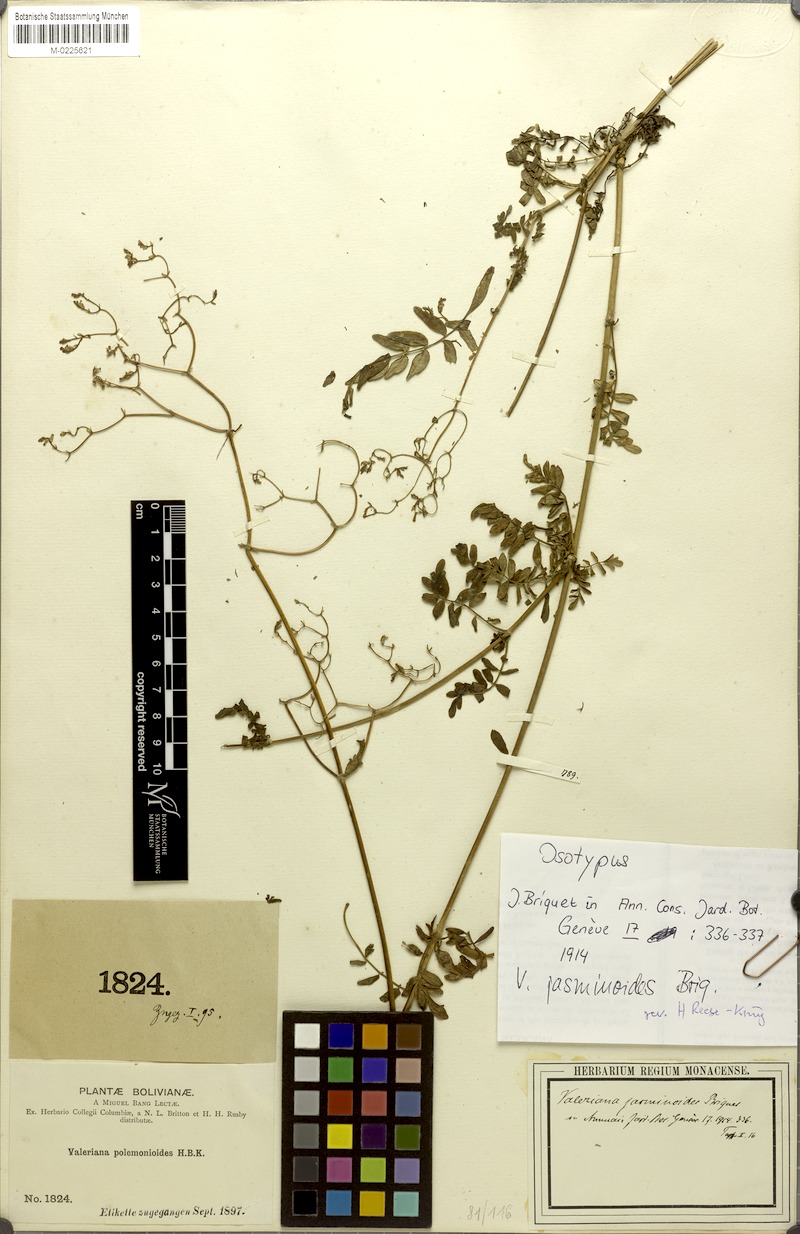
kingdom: Plantae
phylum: Tracheophyta
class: Magnoliopsida
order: Dipsacales
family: Caprifoliaceae
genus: Valeriana
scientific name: Valeriana jasminoides
